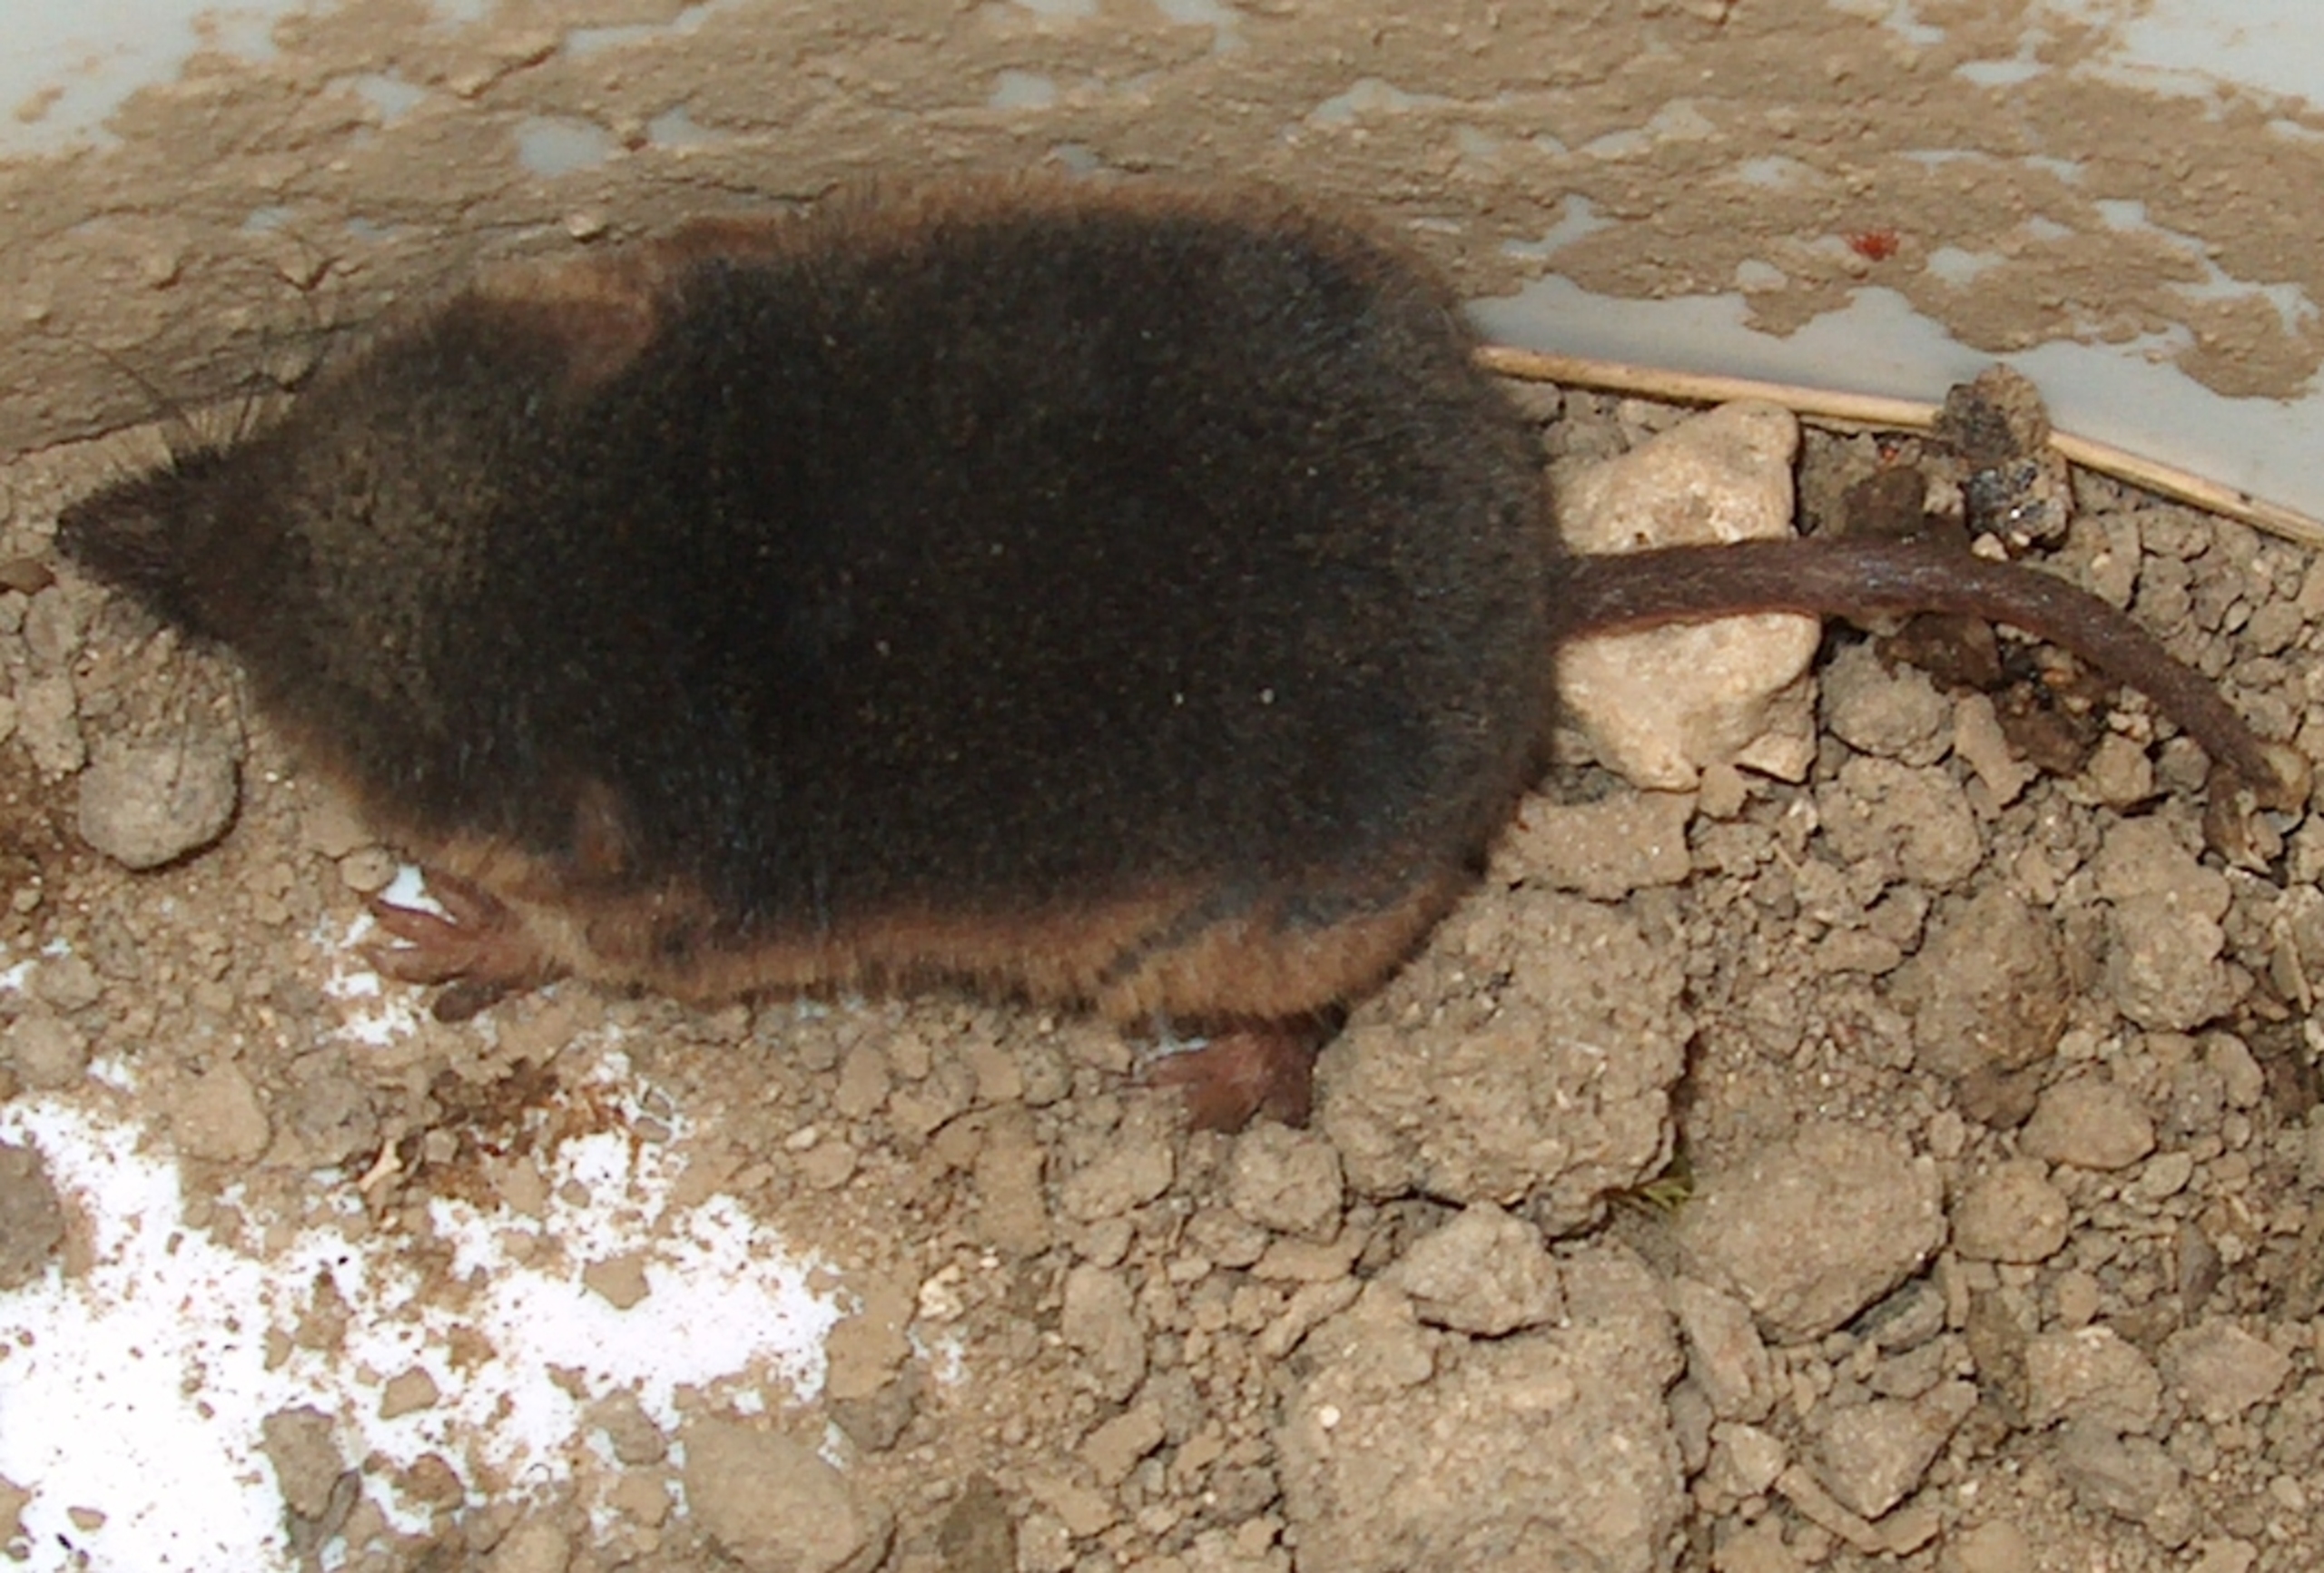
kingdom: Animalia
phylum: Chordata
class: Mammalia
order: Soricomorpha
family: Soricidae
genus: Sorex
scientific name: Sorex araneus
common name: Almindelig spidsmus
